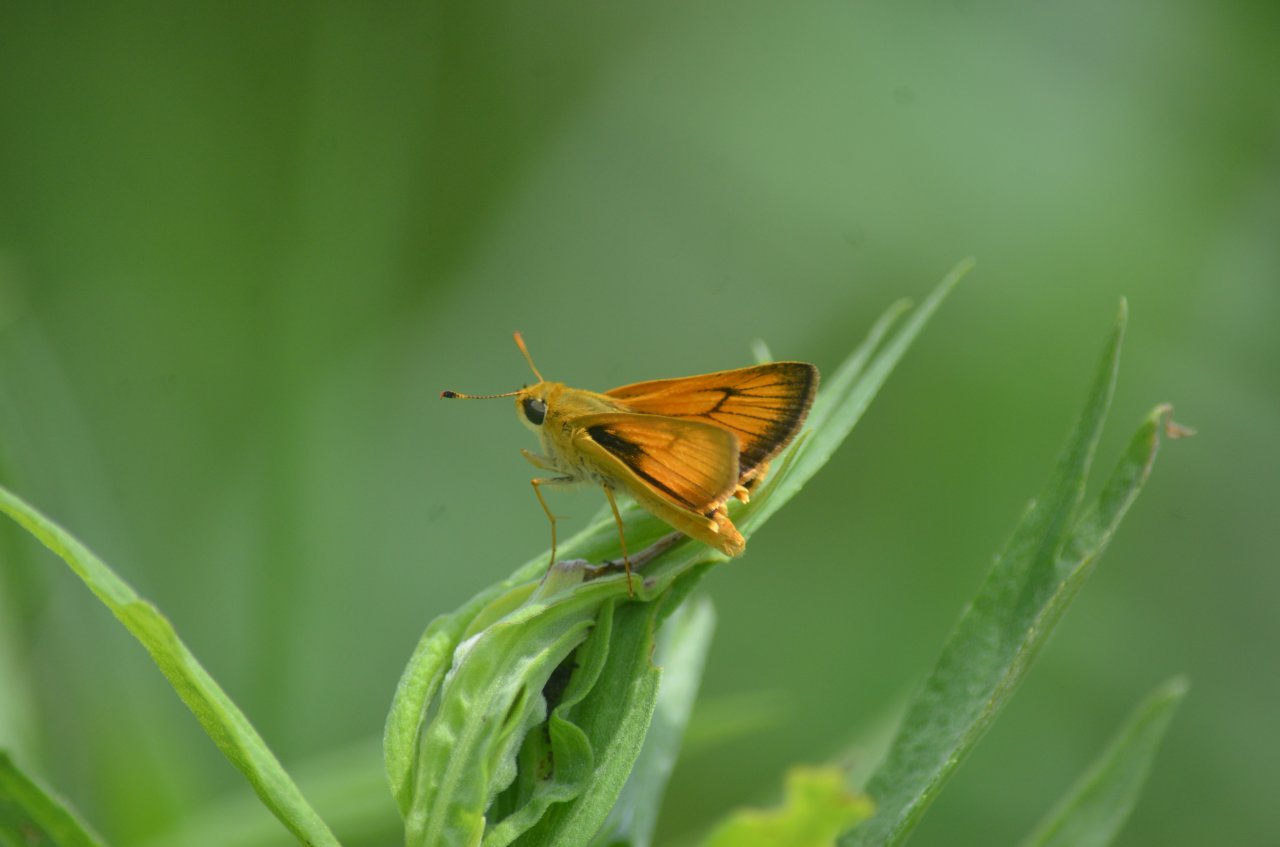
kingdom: Animalia
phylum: Arthropoda
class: Insecta
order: Lepidoptera
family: Hesperiidae
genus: Atrytone
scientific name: Atrytone delaware
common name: Delaware Skipper
